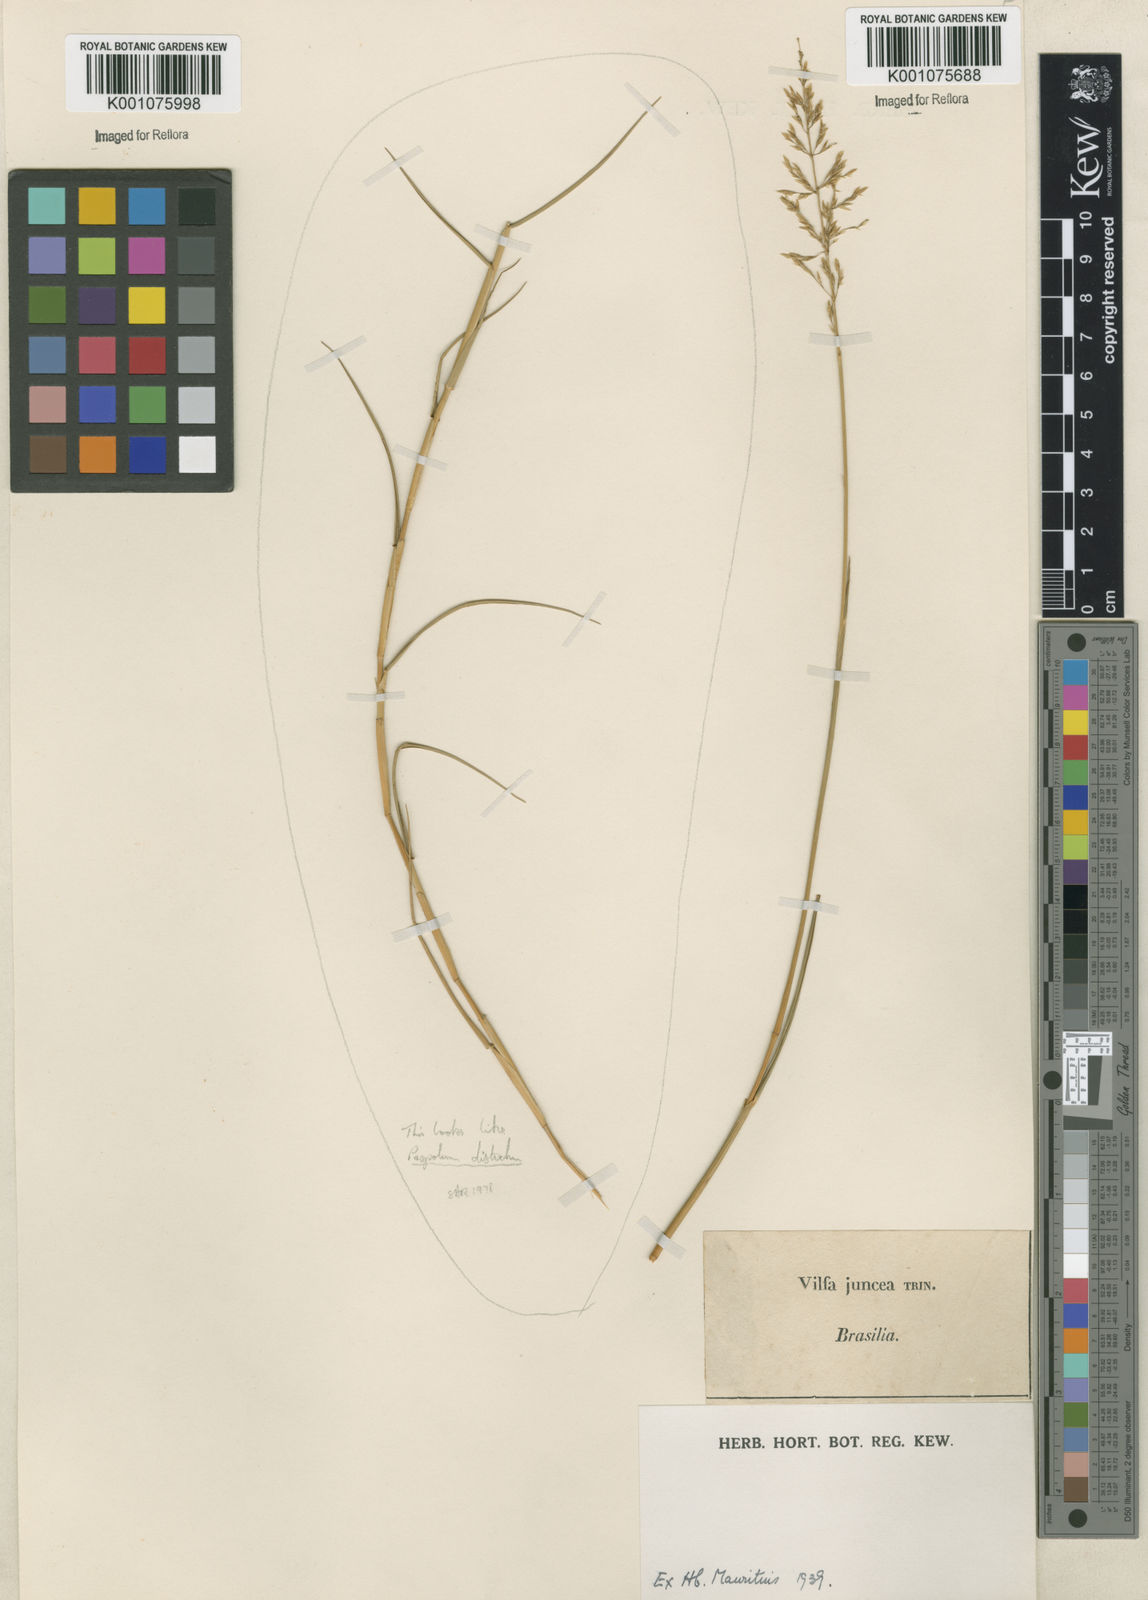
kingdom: Plantae
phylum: Tracheophyta
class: Liliopsida
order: Poales
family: Poaceae
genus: Sporobolus
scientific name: Sporobolus cubensis
